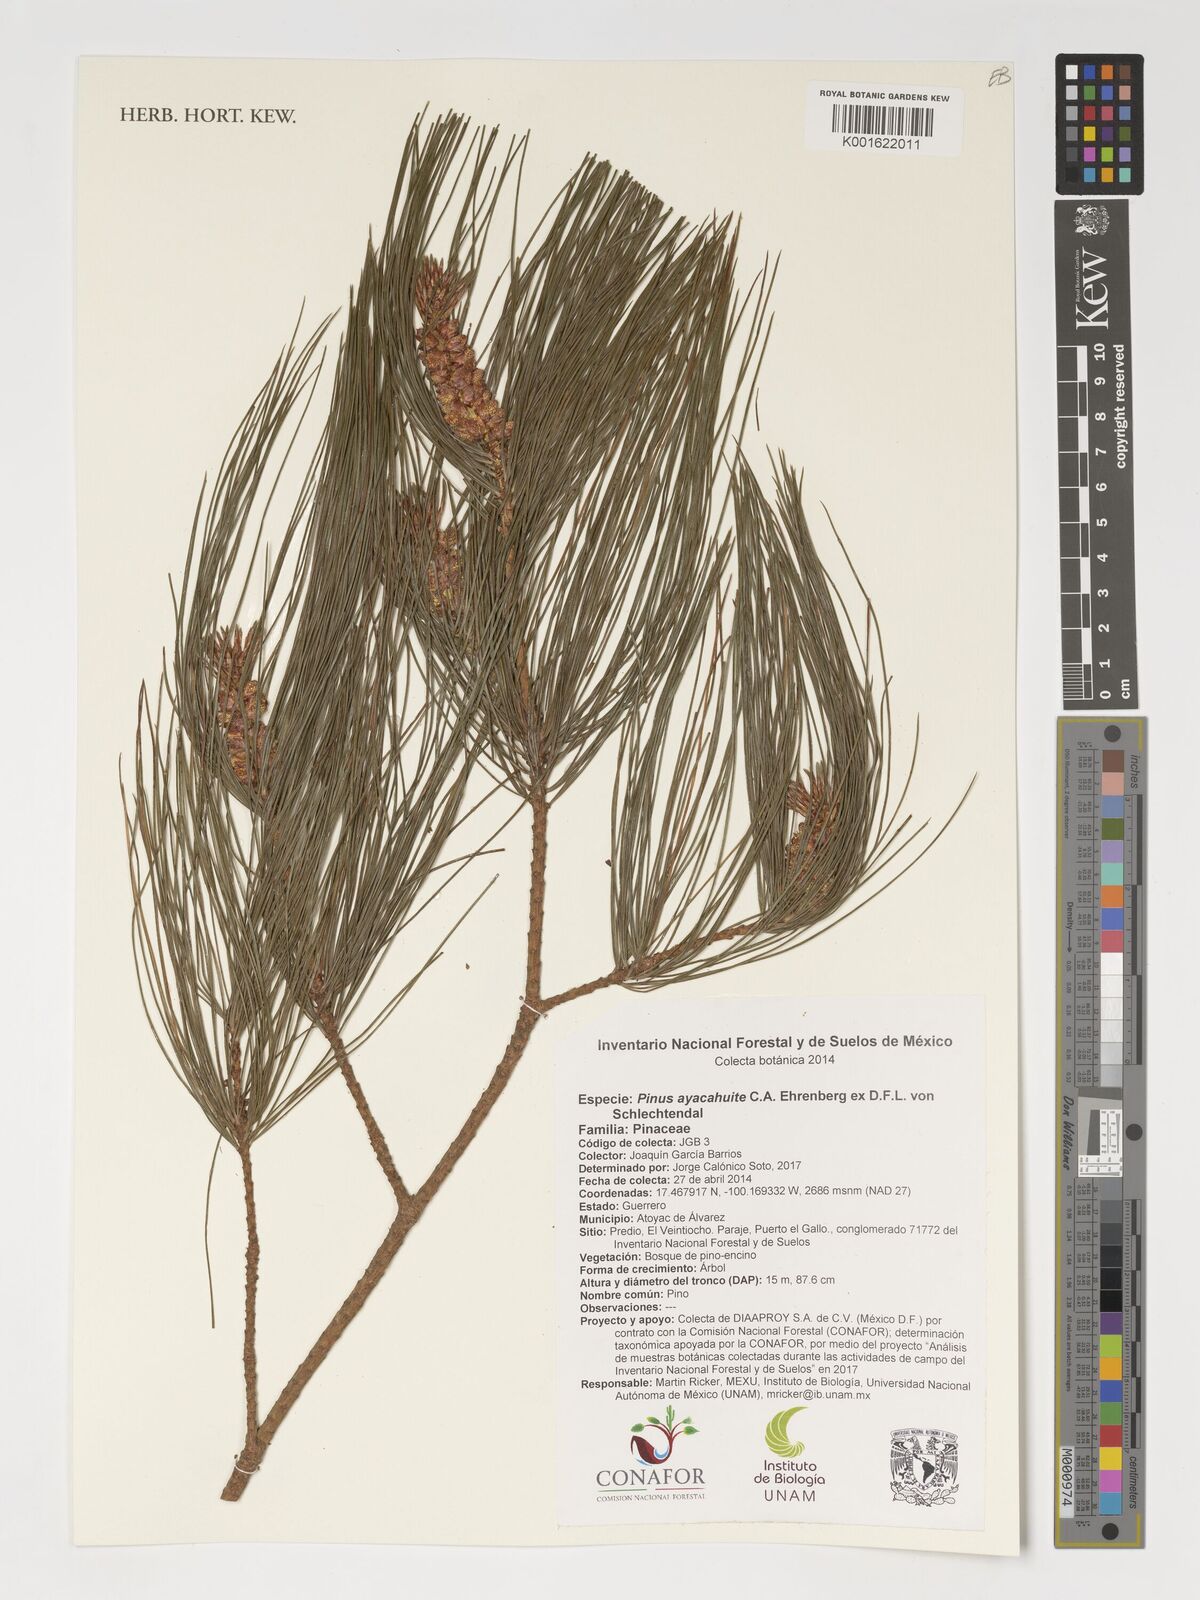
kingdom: Plantae
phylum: Tracheophyta
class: Pinopsida
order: Pinales
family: Pinaceae
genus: Pinus
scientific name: Pinus ayacahuite
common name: Mexican white pine
